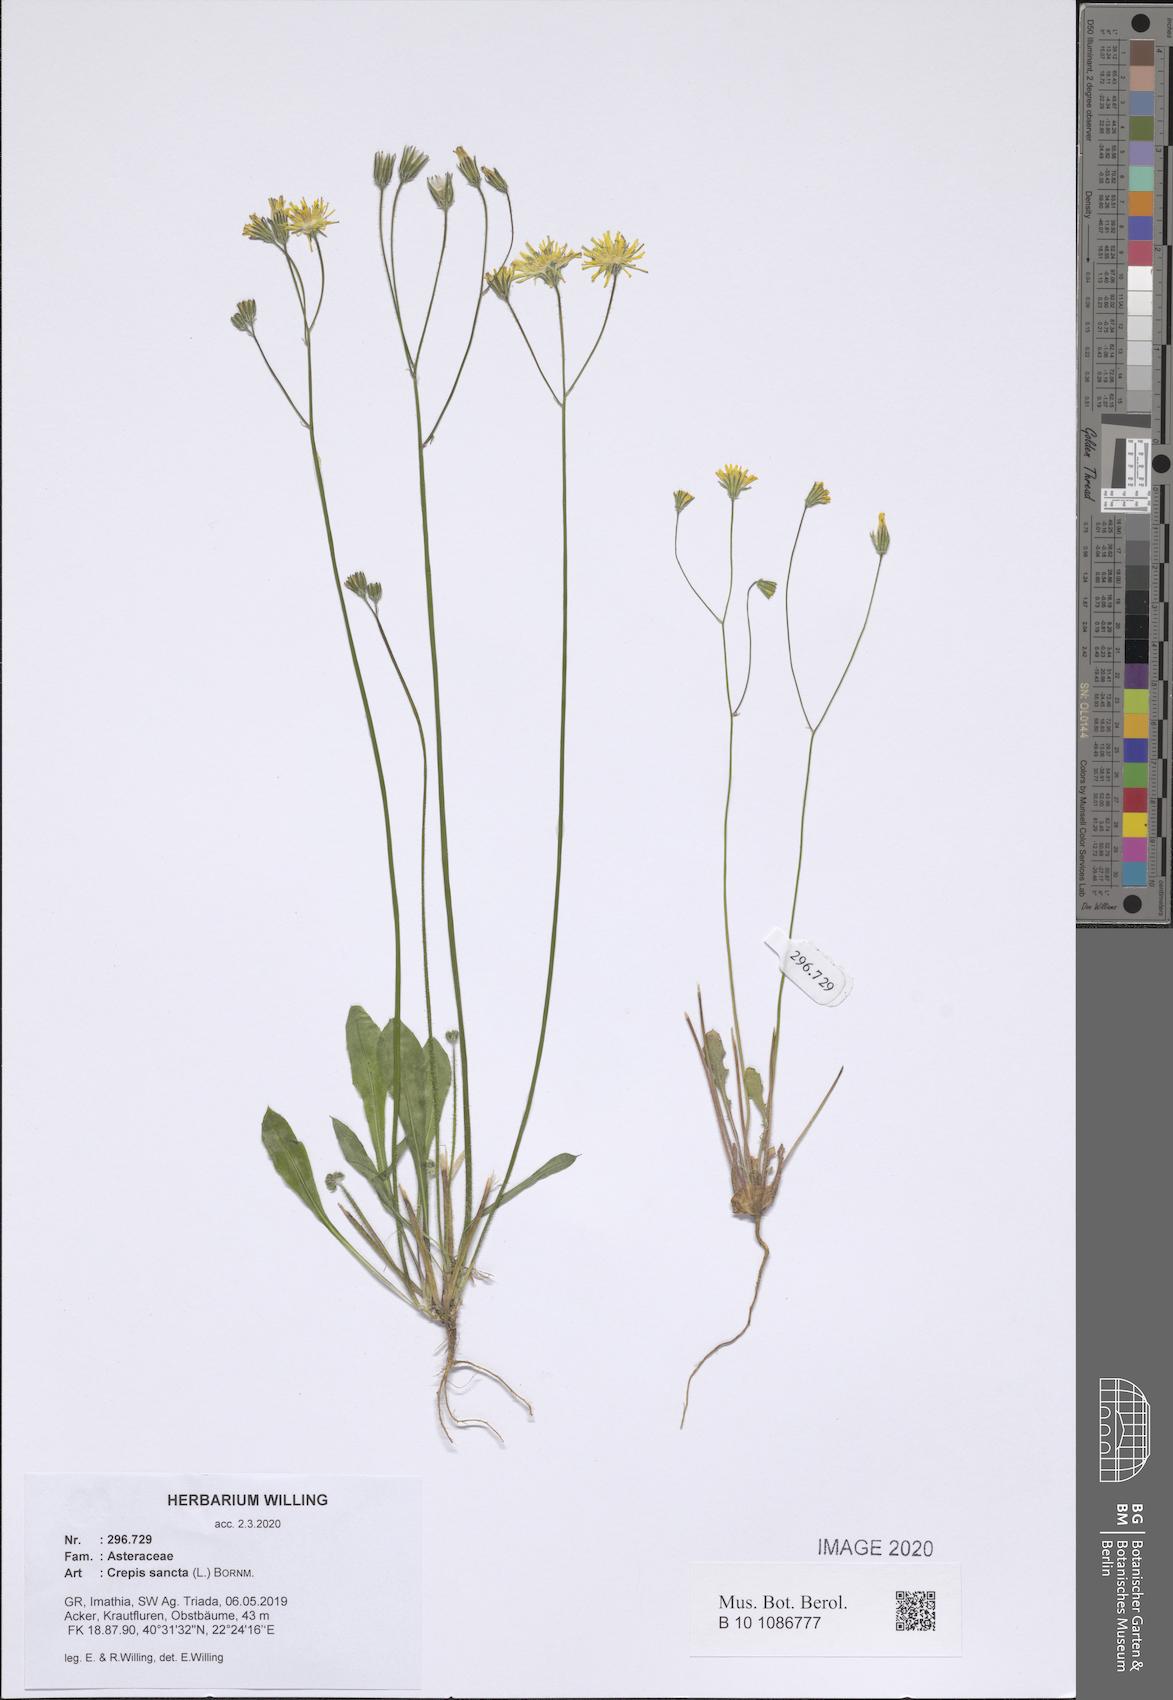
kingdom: Plantae
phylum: Tracheophyta
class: Magnoliopsida
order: Asterales
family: Asteraceae
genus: Crepis
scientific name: Crepis sancta
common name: Hawk's-beard
